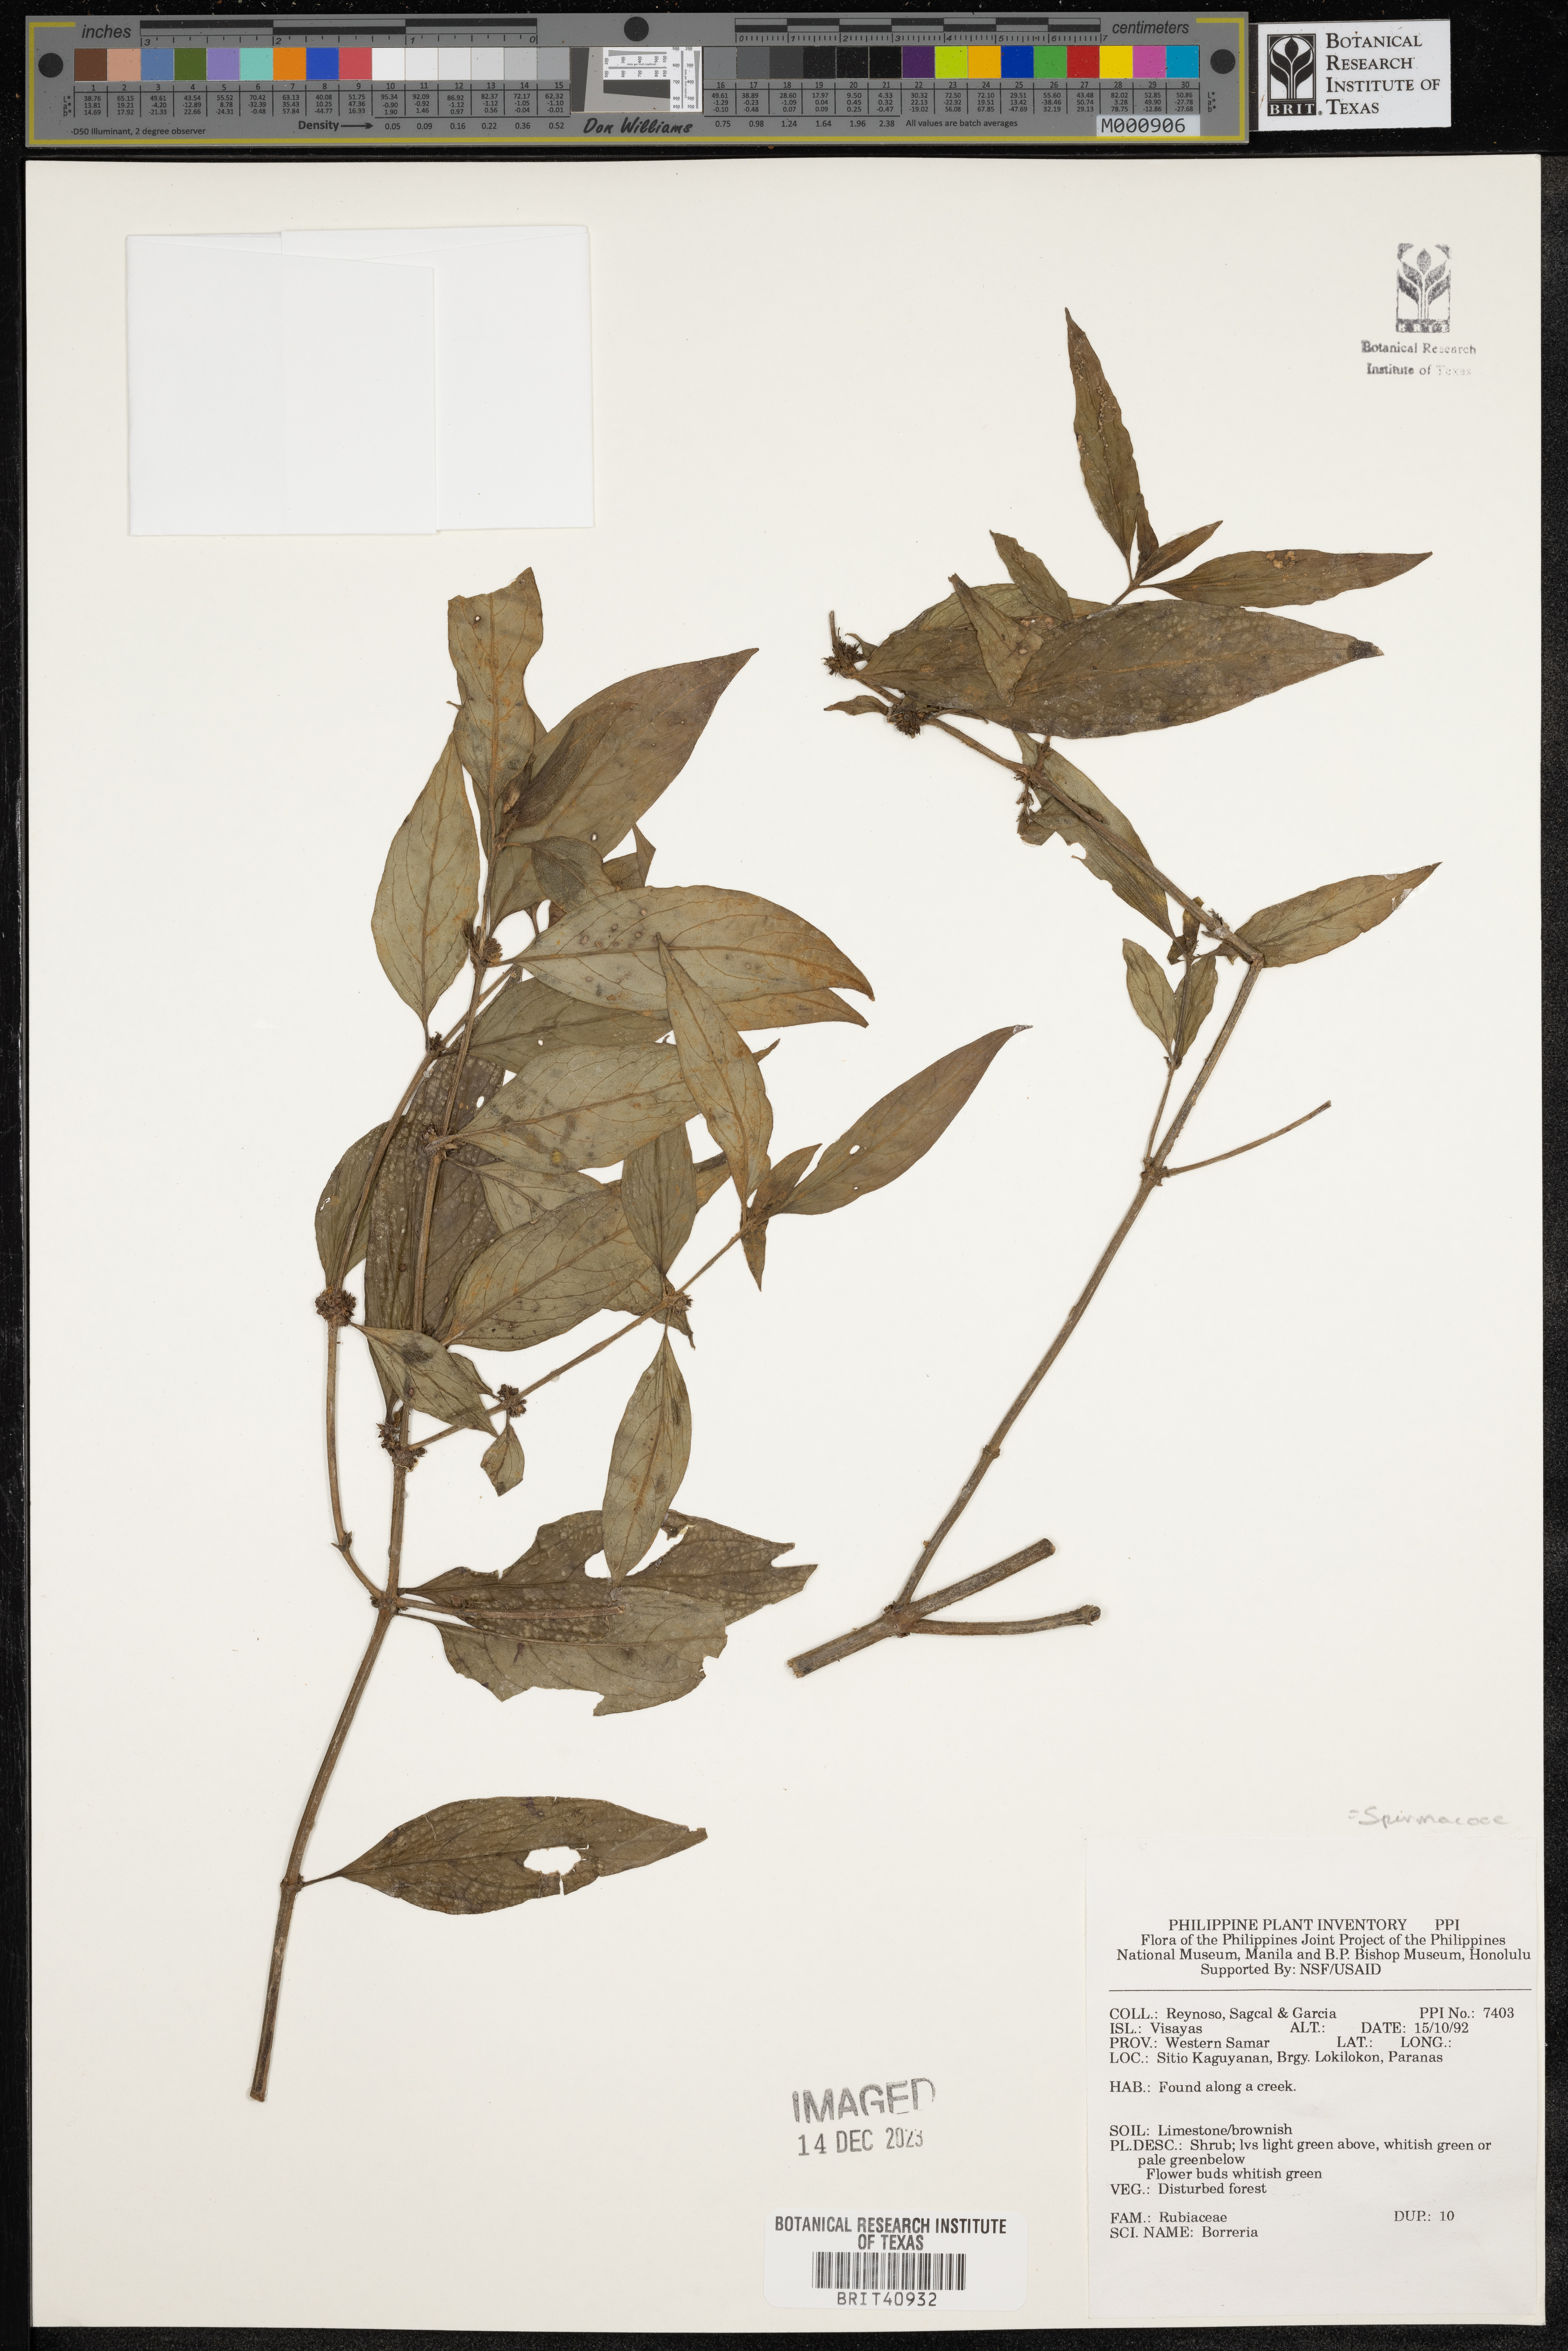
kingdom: Plantae
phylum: Tracheophyta
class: Magnoliopsida
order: Gentianales
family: Rubiaceae
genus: Spermacoce
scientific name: Spermacoce
